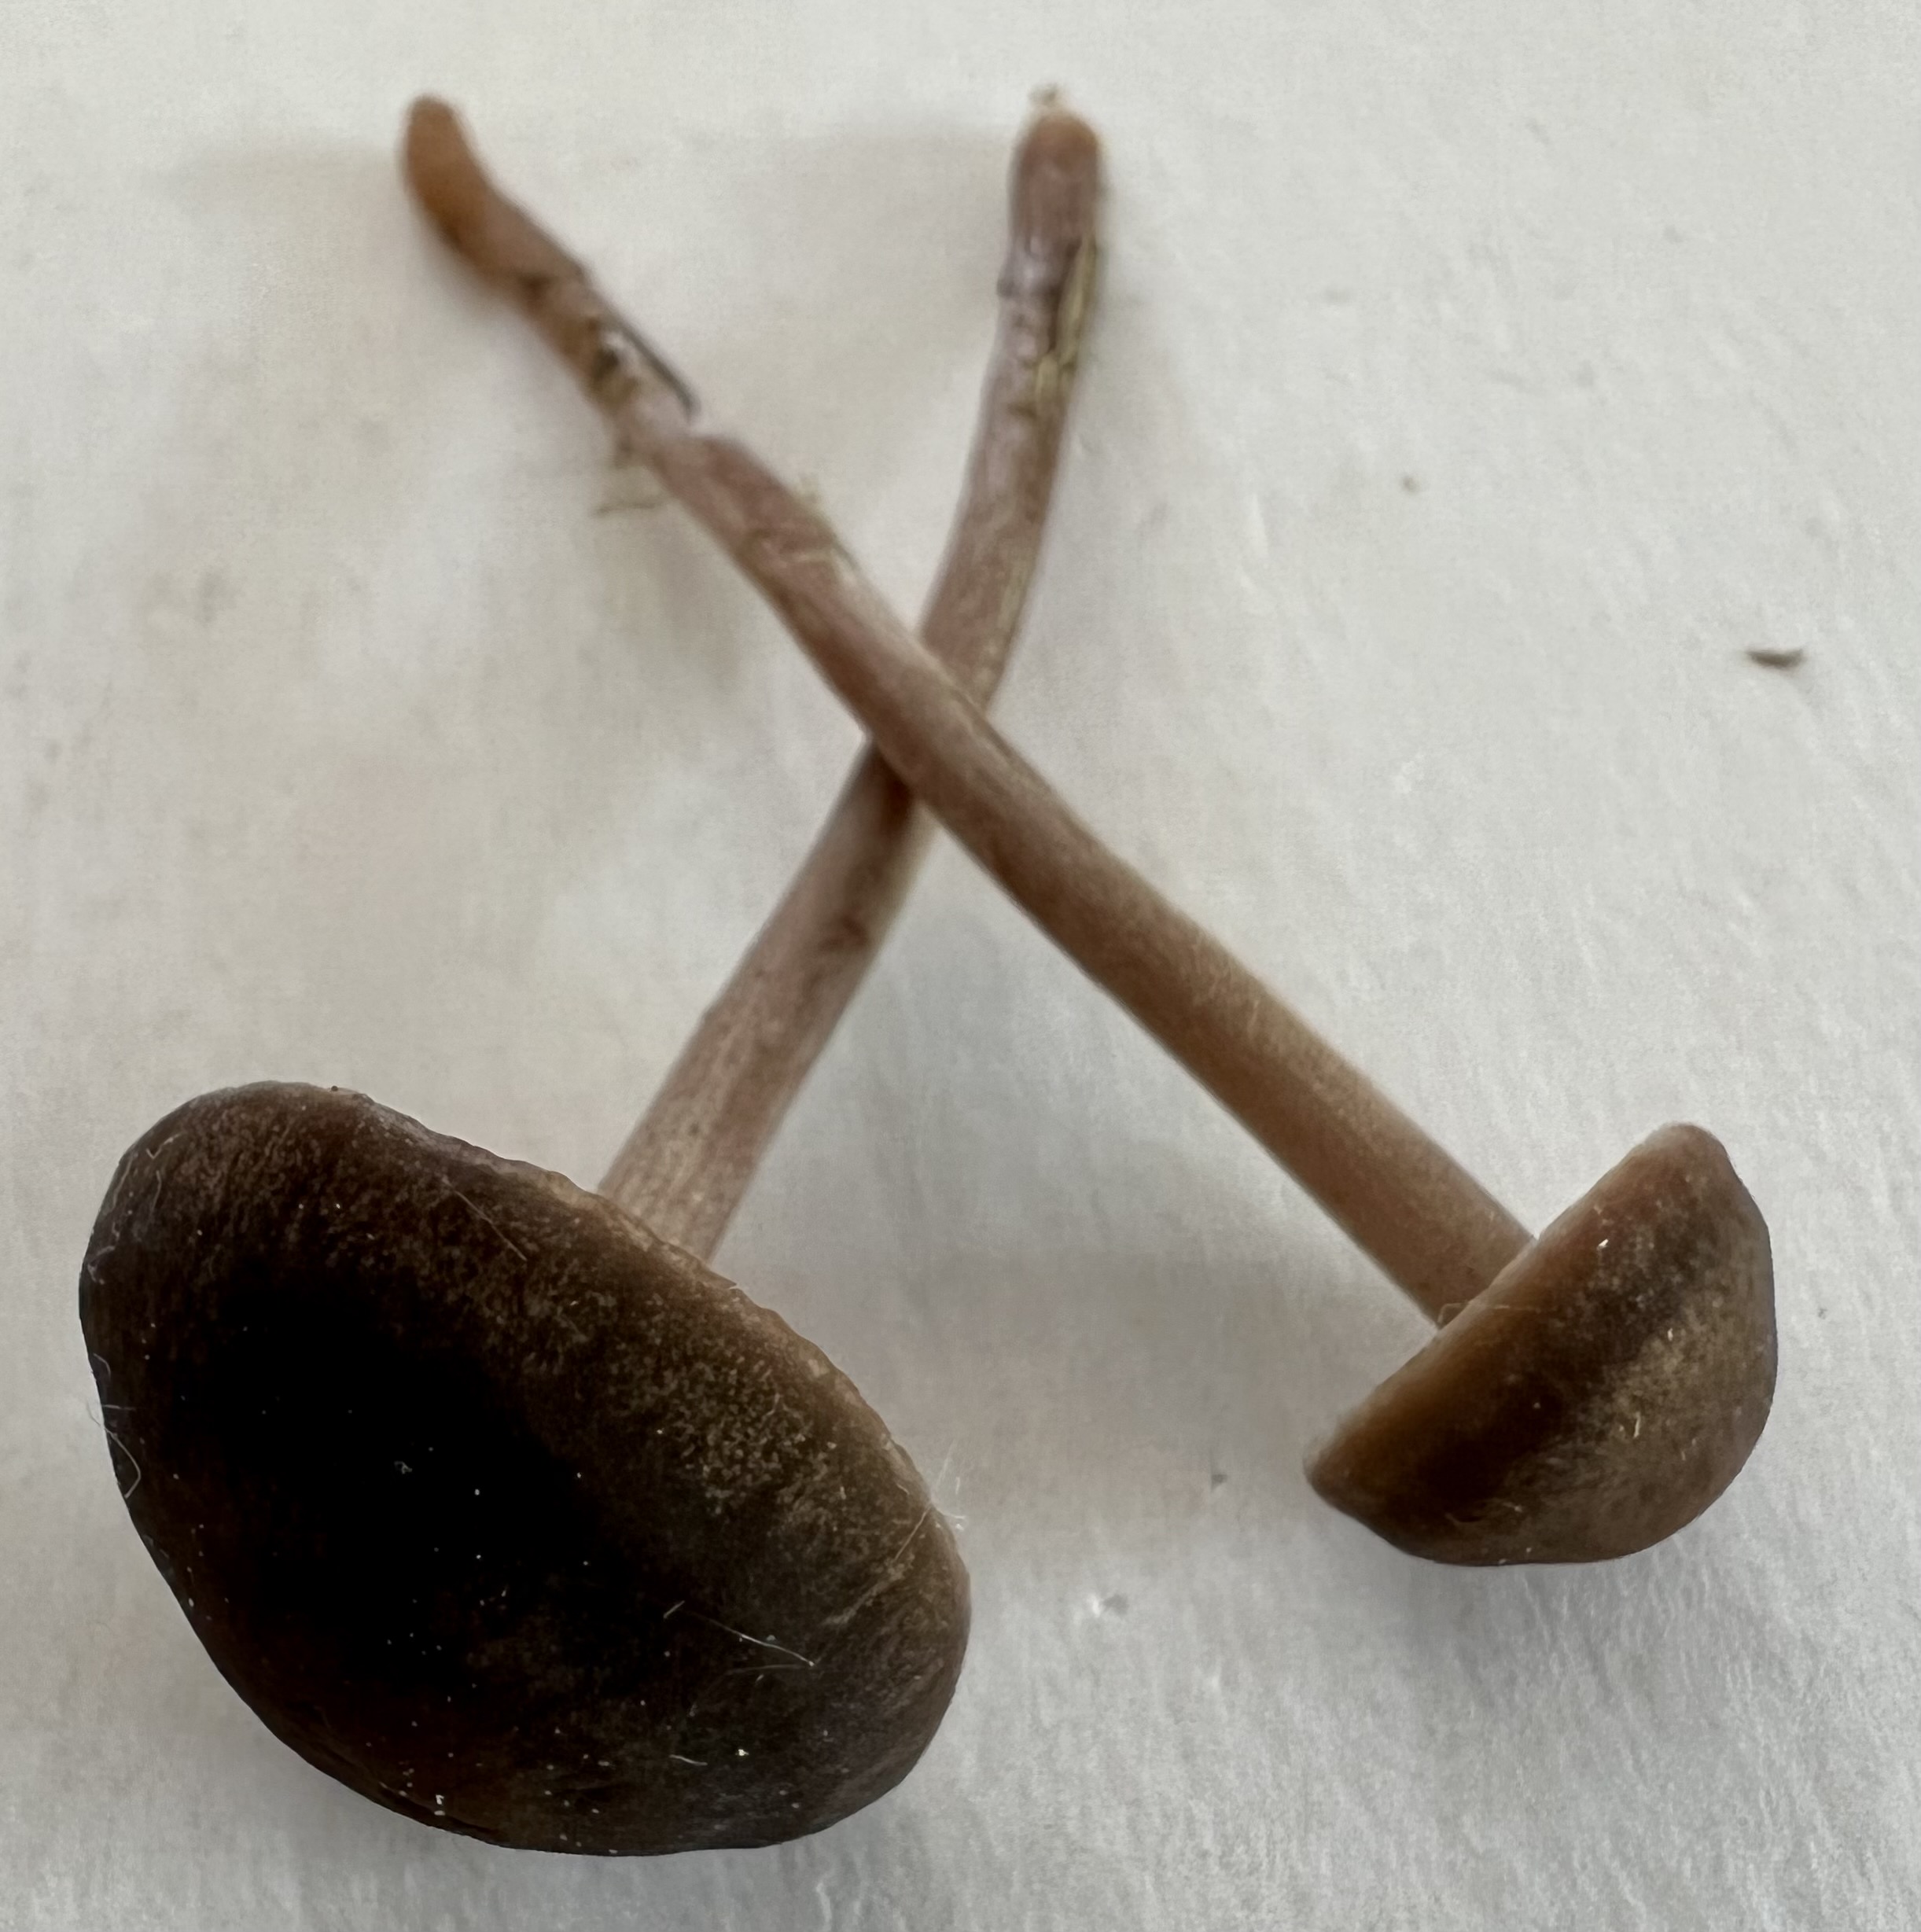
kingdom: Fungi
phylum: Basidiomycota
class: Agaricomycetes
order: Agaricales
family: Bolbitiaceae
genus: Panaeolus
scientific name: Panaeolus fimicola
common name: tidlig glanshat
